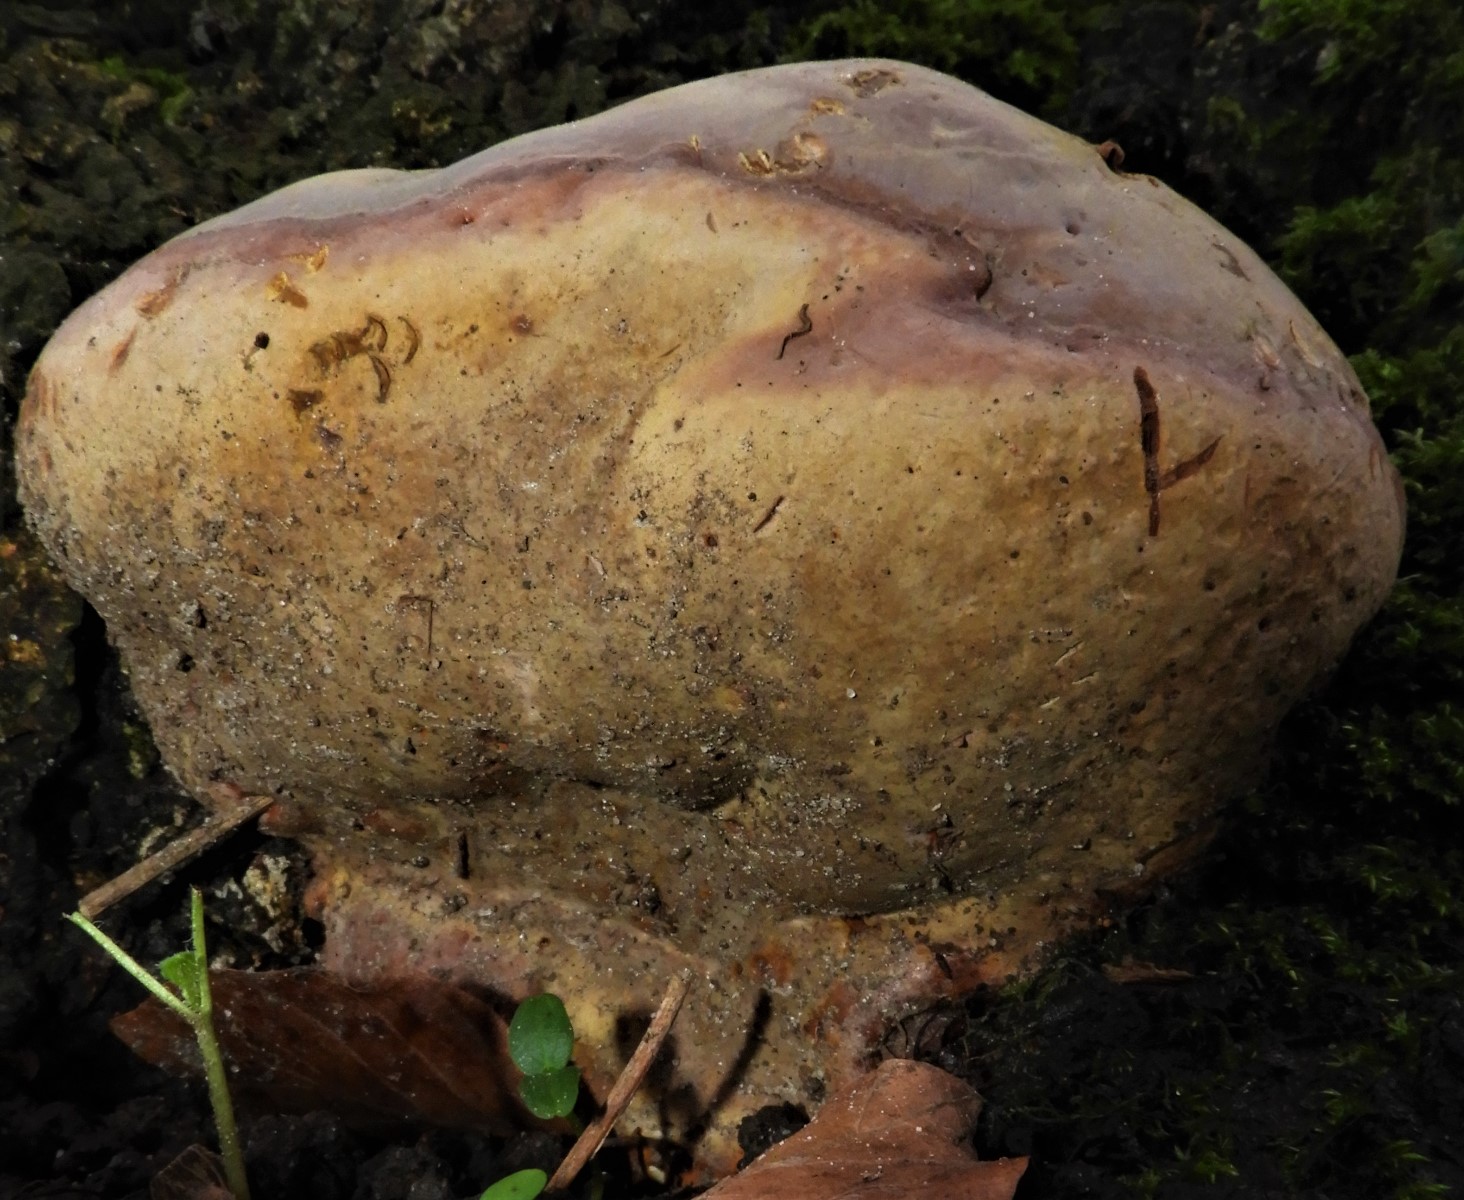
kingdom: Fungi
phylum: Basidiomycota
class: Agaricomycetes
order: Polyporales
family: Polyporaceae
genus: Ganoderma
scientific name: Ganoderma pfeifferi
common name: kobberrød lakporesvamp
